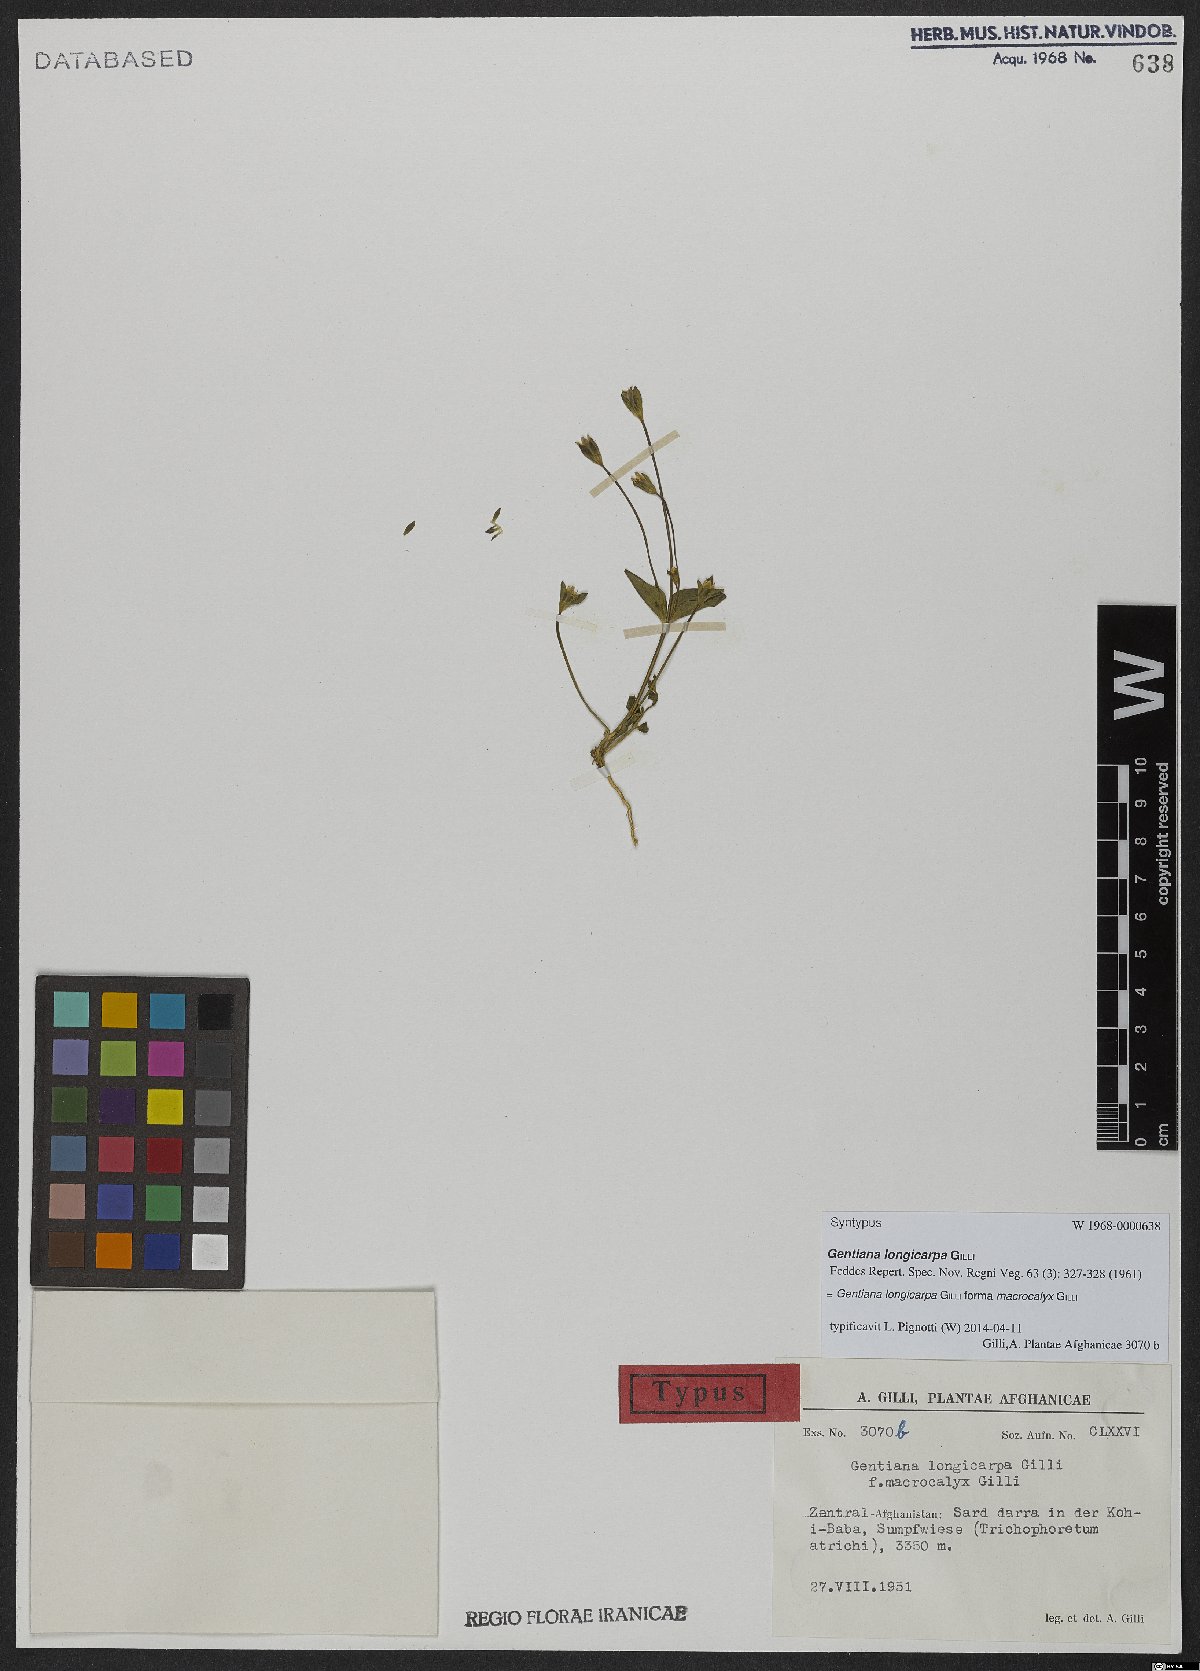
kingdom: Plantae
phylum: Tracheophyta
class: Magnoliopsida
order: Gentianales
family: Gentianaceae
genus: Gentianella
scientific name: Gentianella umbellata
